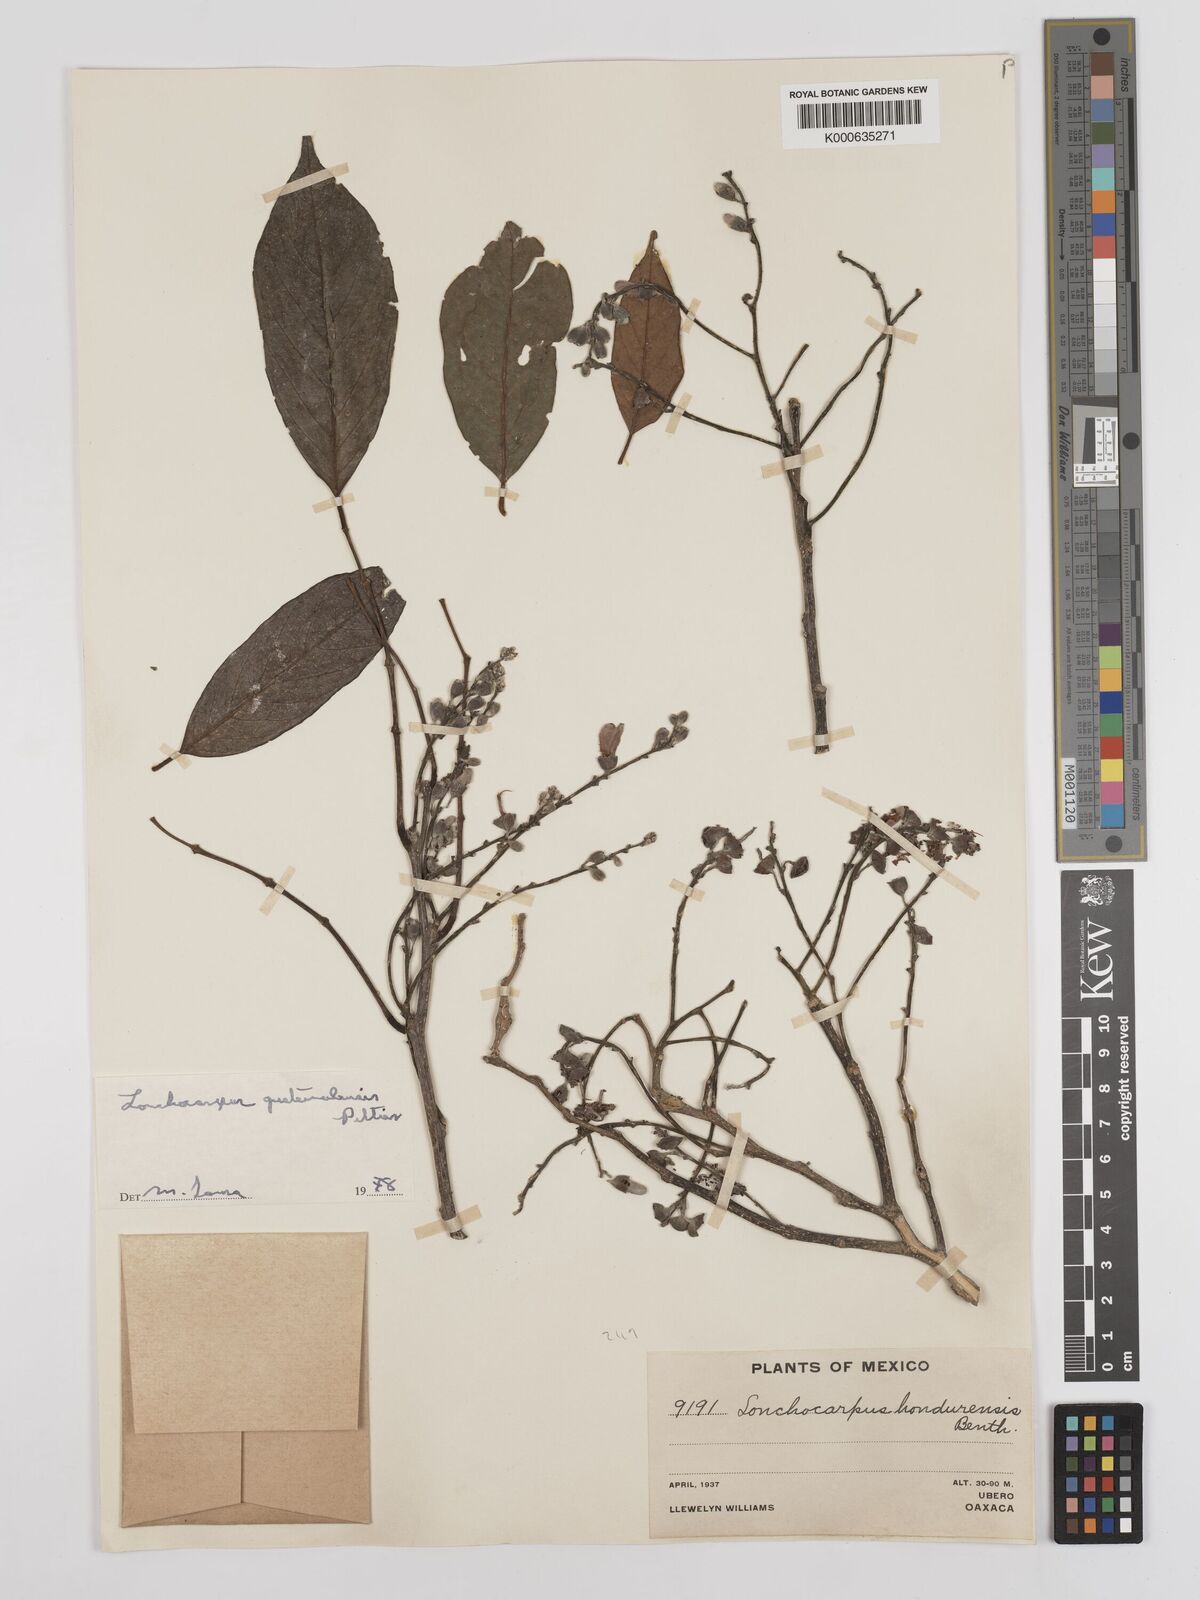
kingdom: Plantae
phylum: Tracheophyta
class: Magnoliopsida
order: Fabales
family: Fabaceae
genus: Lonchocarpus
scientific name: Lonchocarpus guatemalensis
